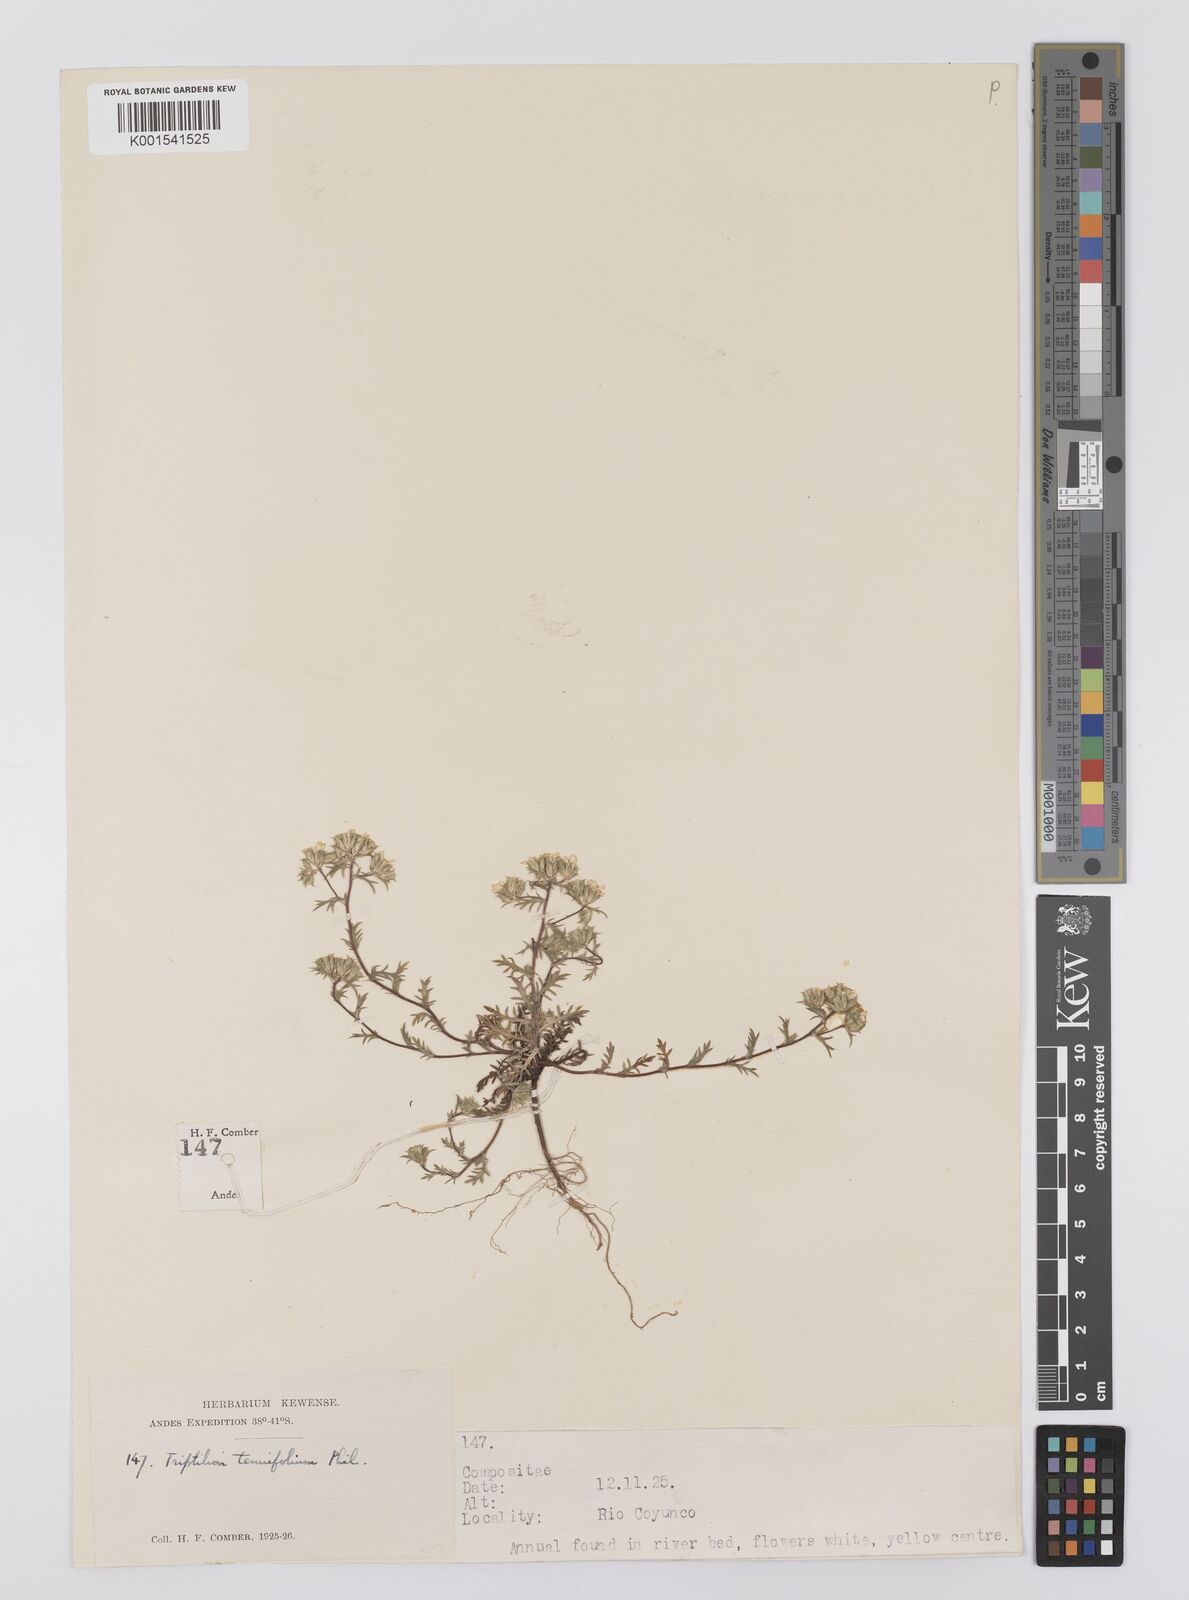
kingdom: Plantae
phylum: Tracheophyta
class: Magnoliopsida
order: Asterales
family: Asteraceae
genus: Triptilion
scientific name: Triptilion achilleae
